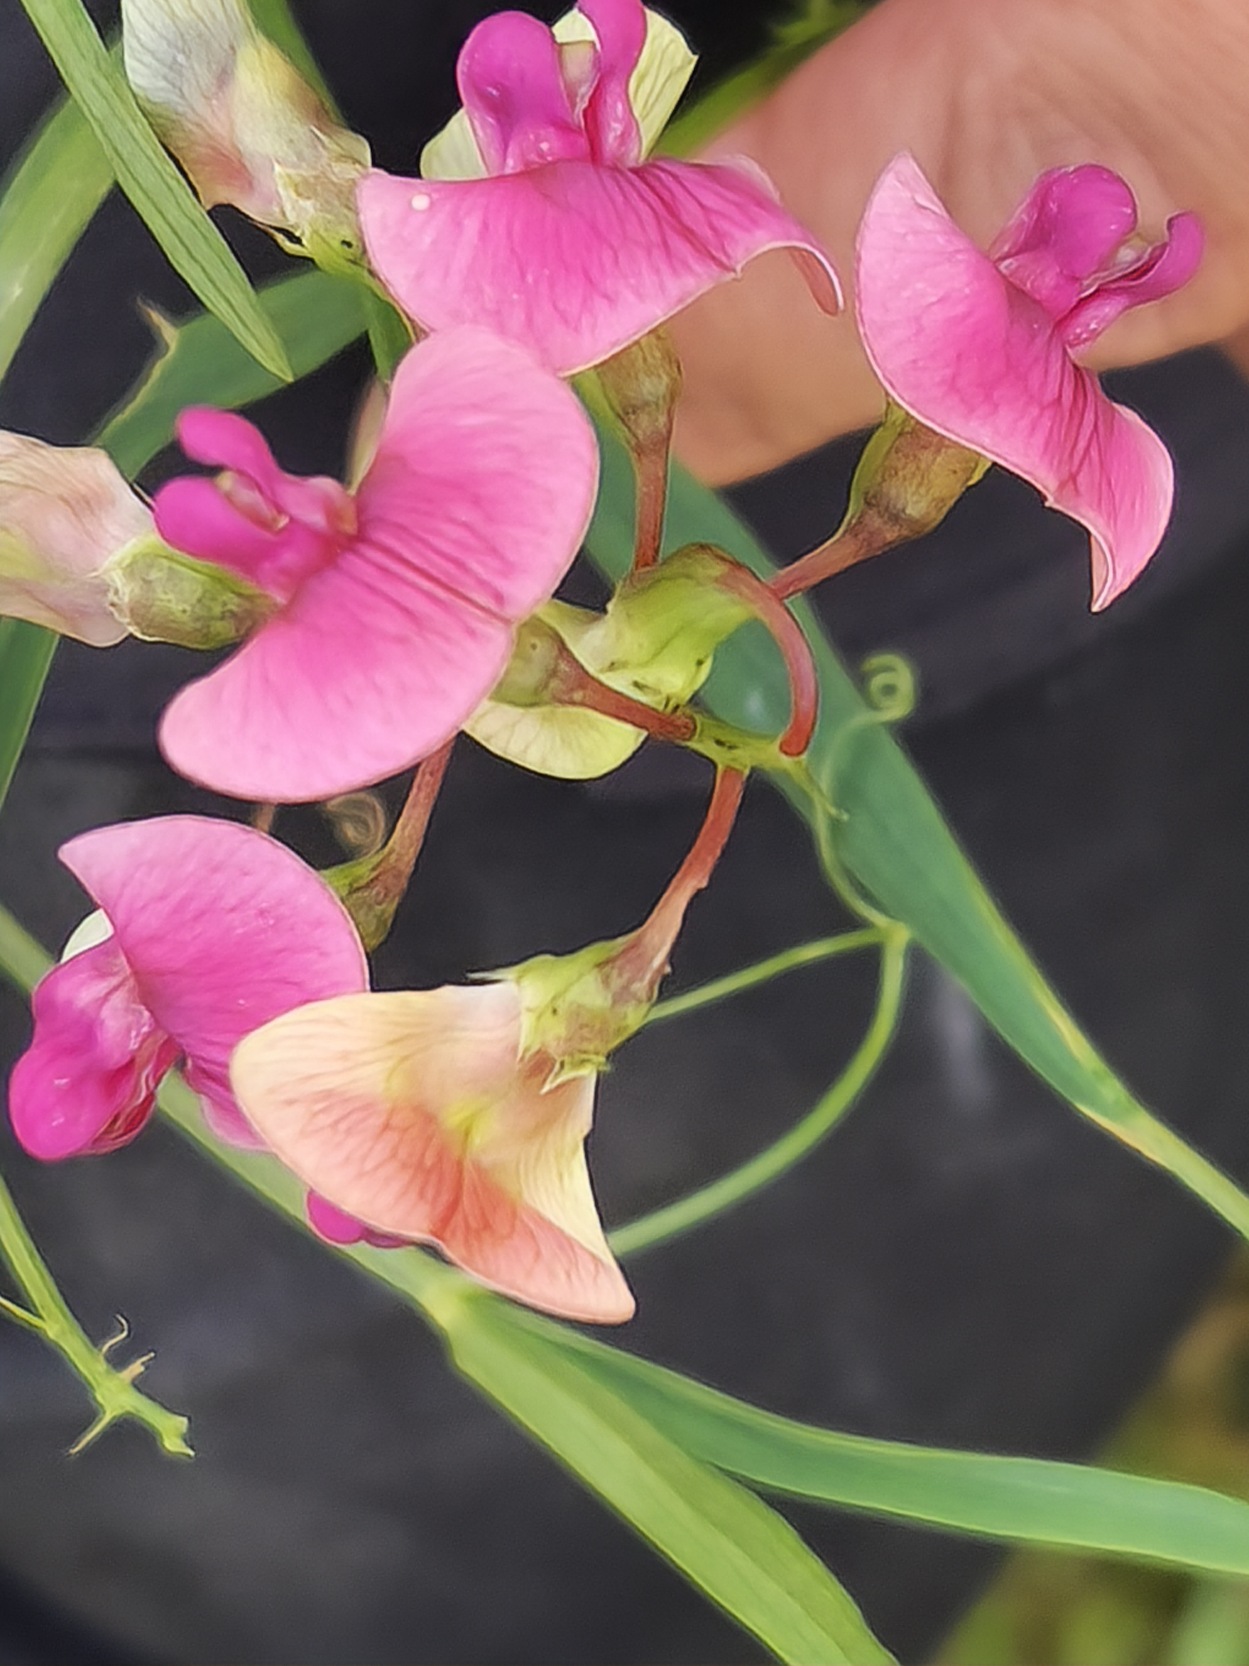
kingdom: Plantae
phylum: Tracheophyta
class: Magnoliopsida
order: Fabales
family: Fabaceae
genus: Lathyrus
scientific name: Lathyrus sylvestris
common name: Skov-fladbælg
